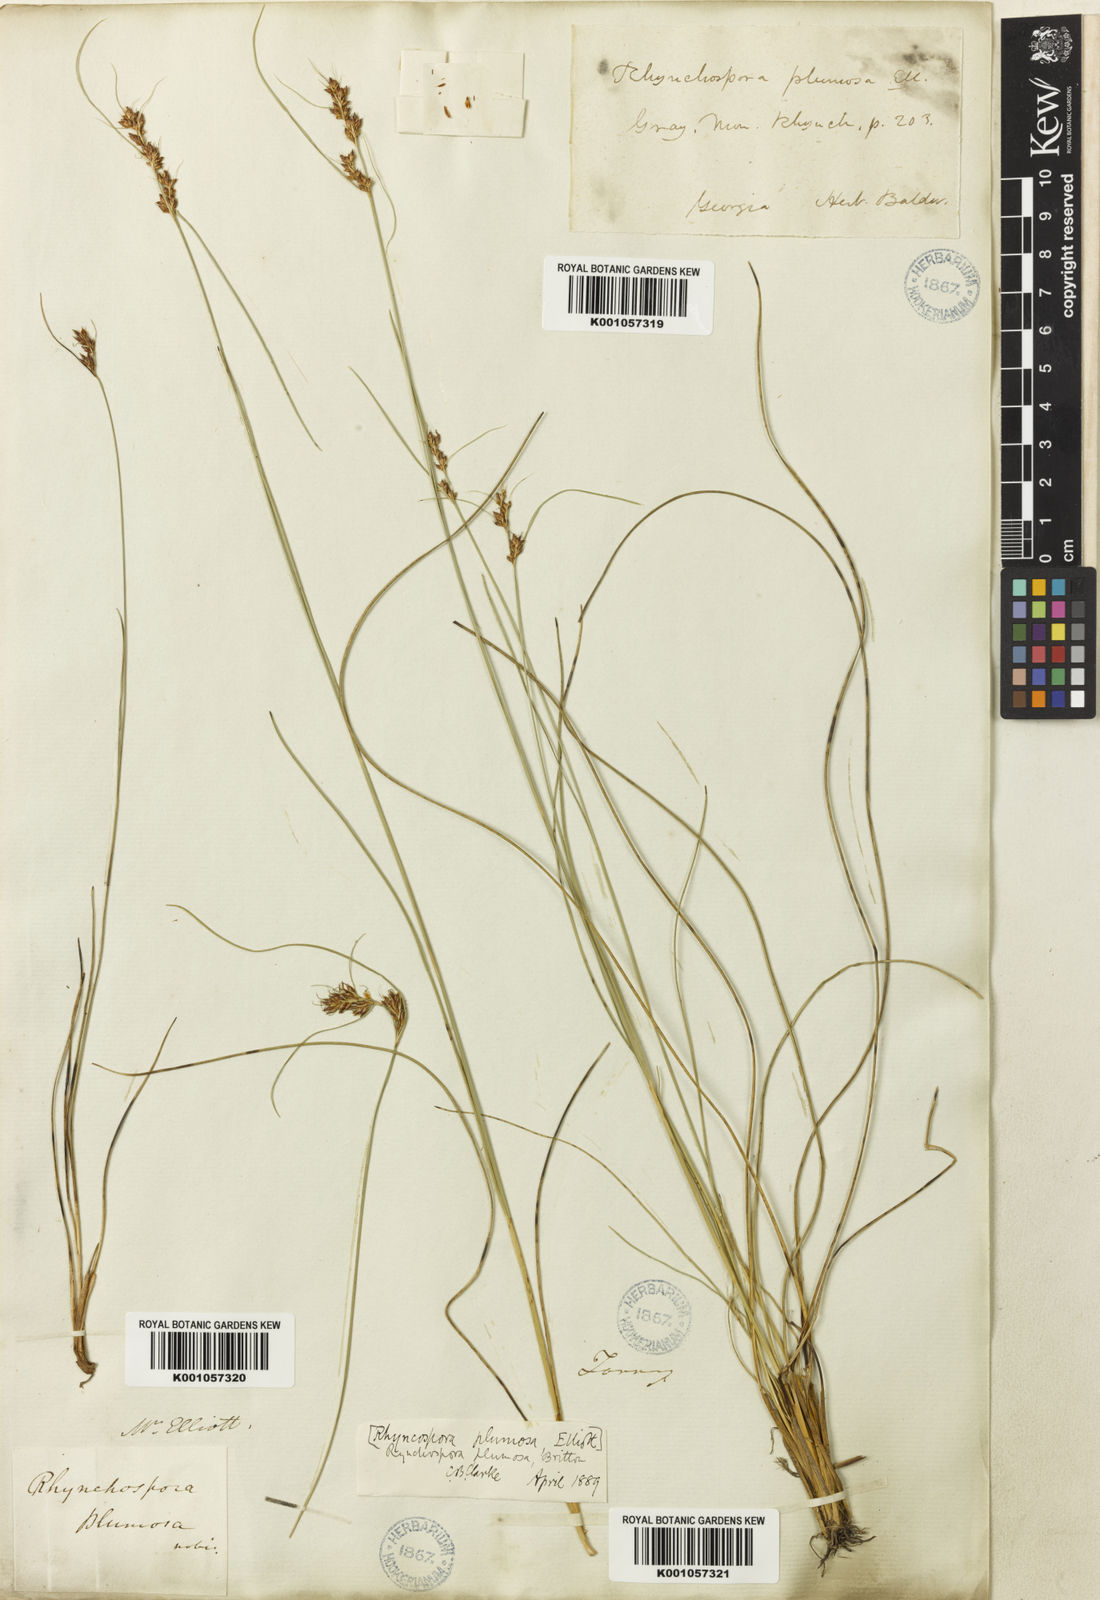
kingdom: Plantae
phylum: Tracheophyta
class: Liliopsida
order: Poales
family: Cyperaceae
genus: Rhynchospora
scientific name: Rhynchospora plumosa
